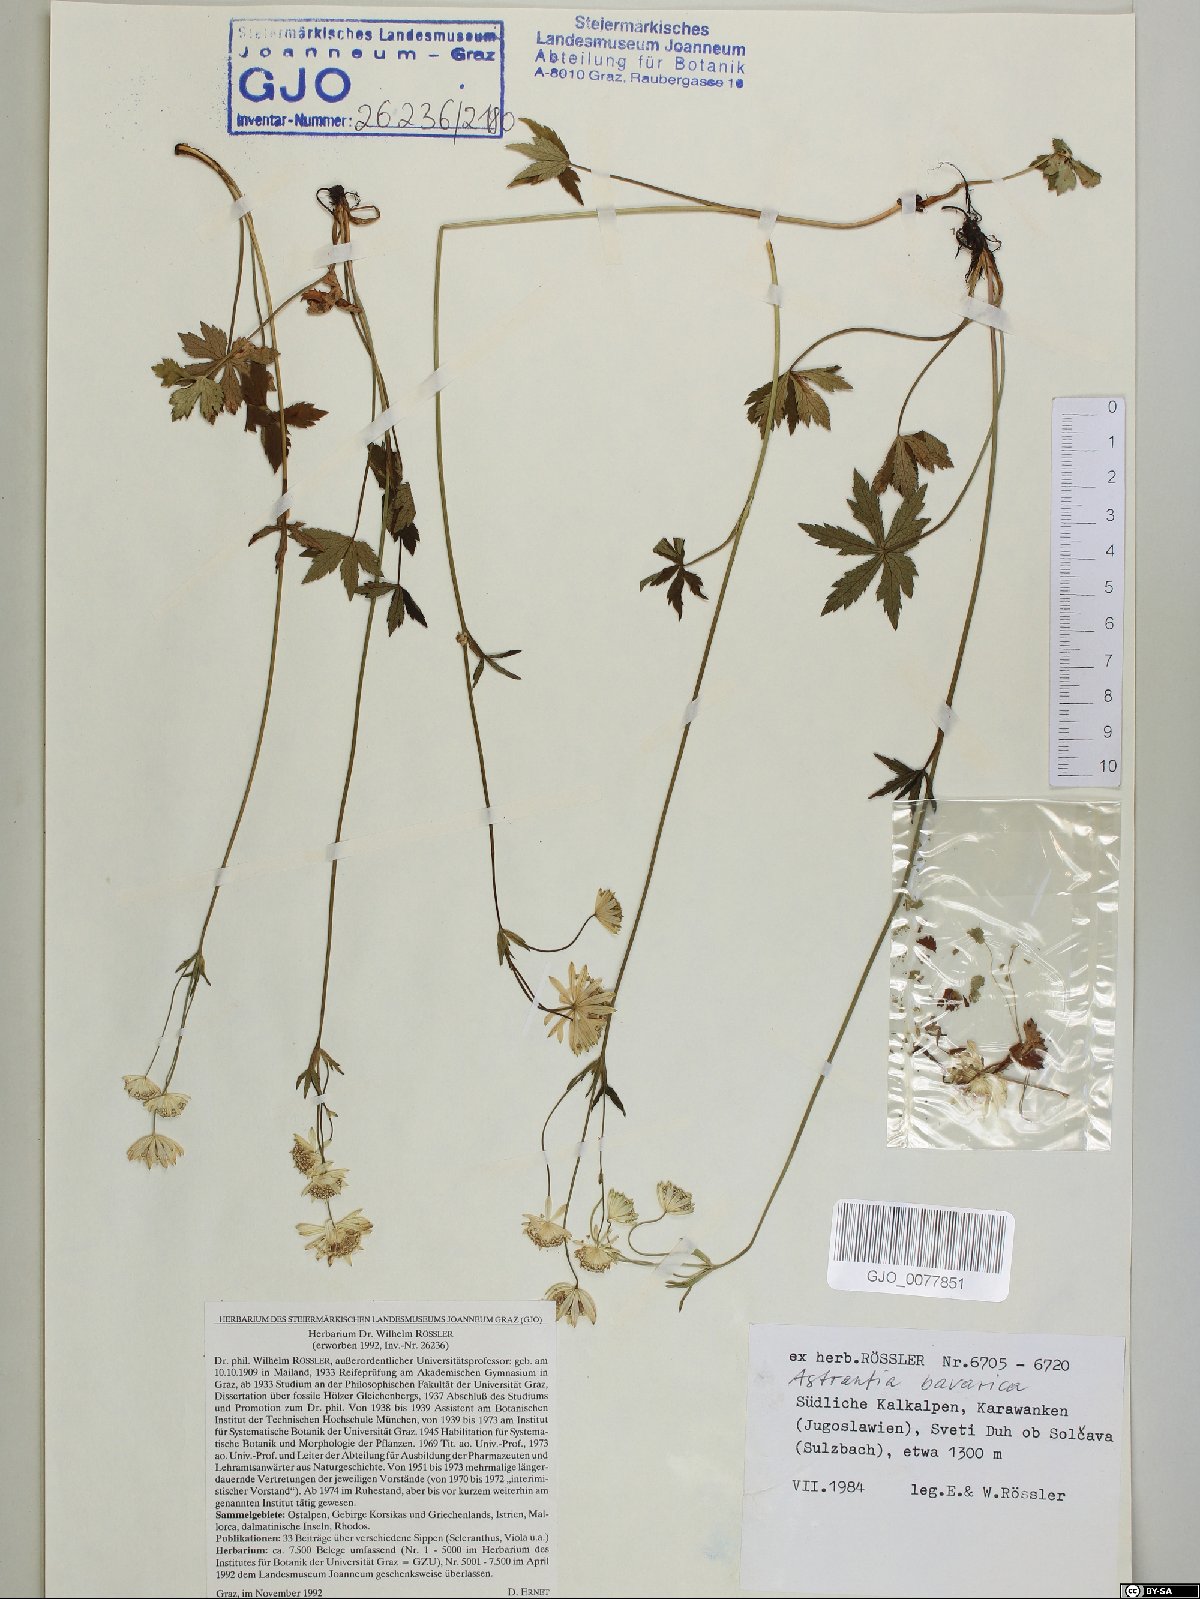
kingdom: Plantae
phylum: Tracheophyta
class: Magnoliopsida
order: Apiales
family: Apiaceae
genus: Astrantia
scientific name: Astrantia bavarica
